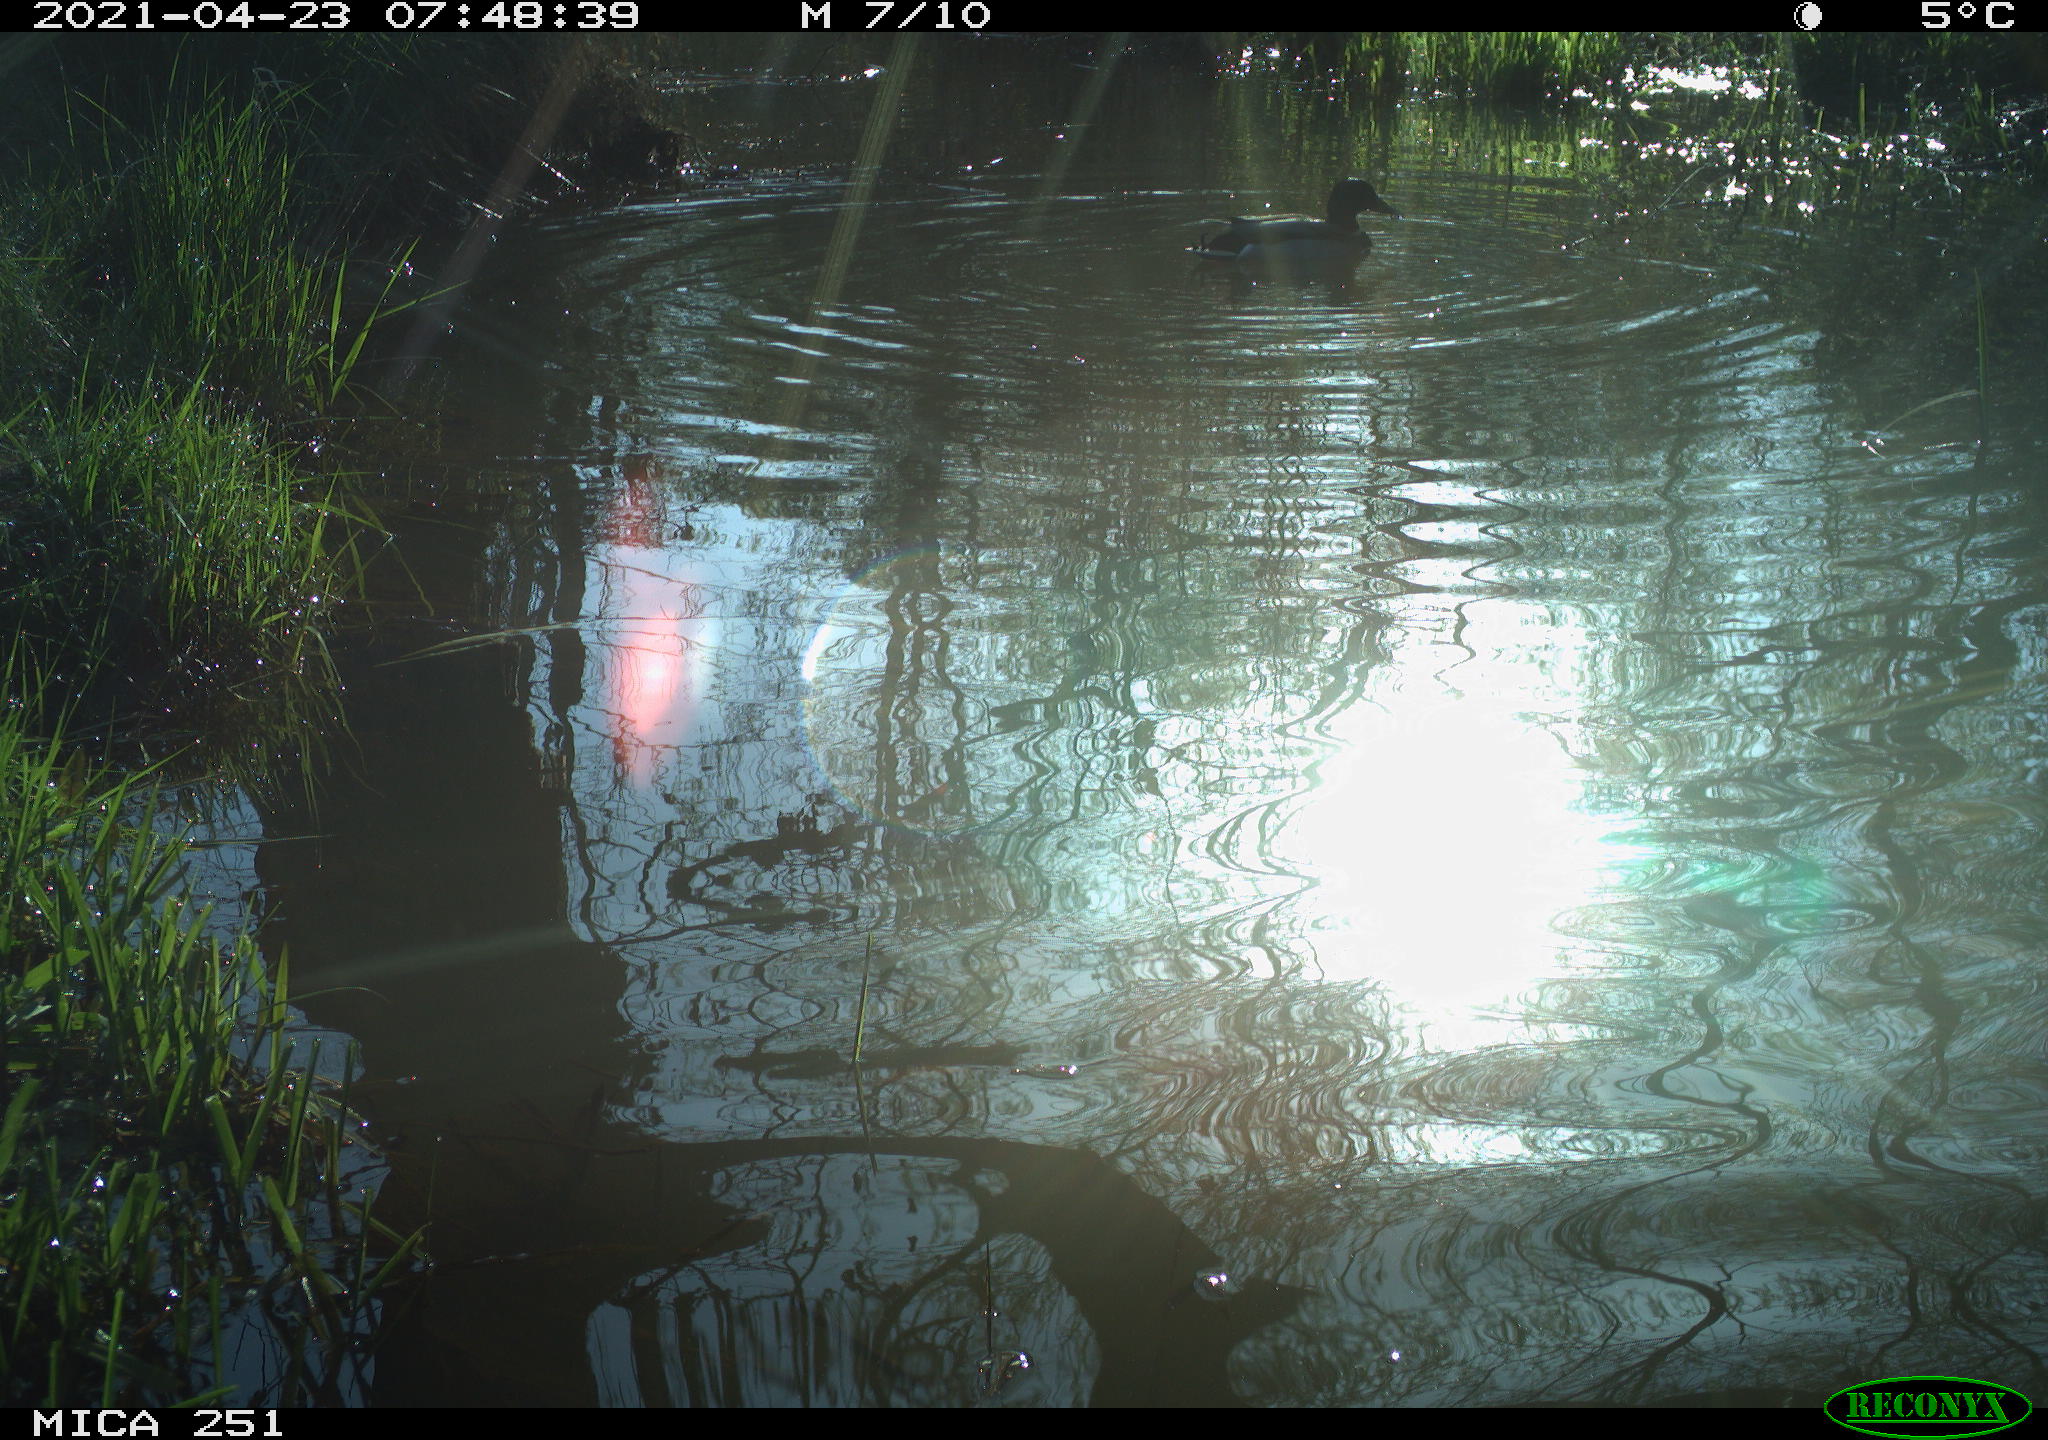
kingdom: Animalia
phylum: Chordata
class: Aves
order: Anseriformes
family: Anatidae
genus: Anas
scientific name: Anas platyrhynchos
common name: Mallard
